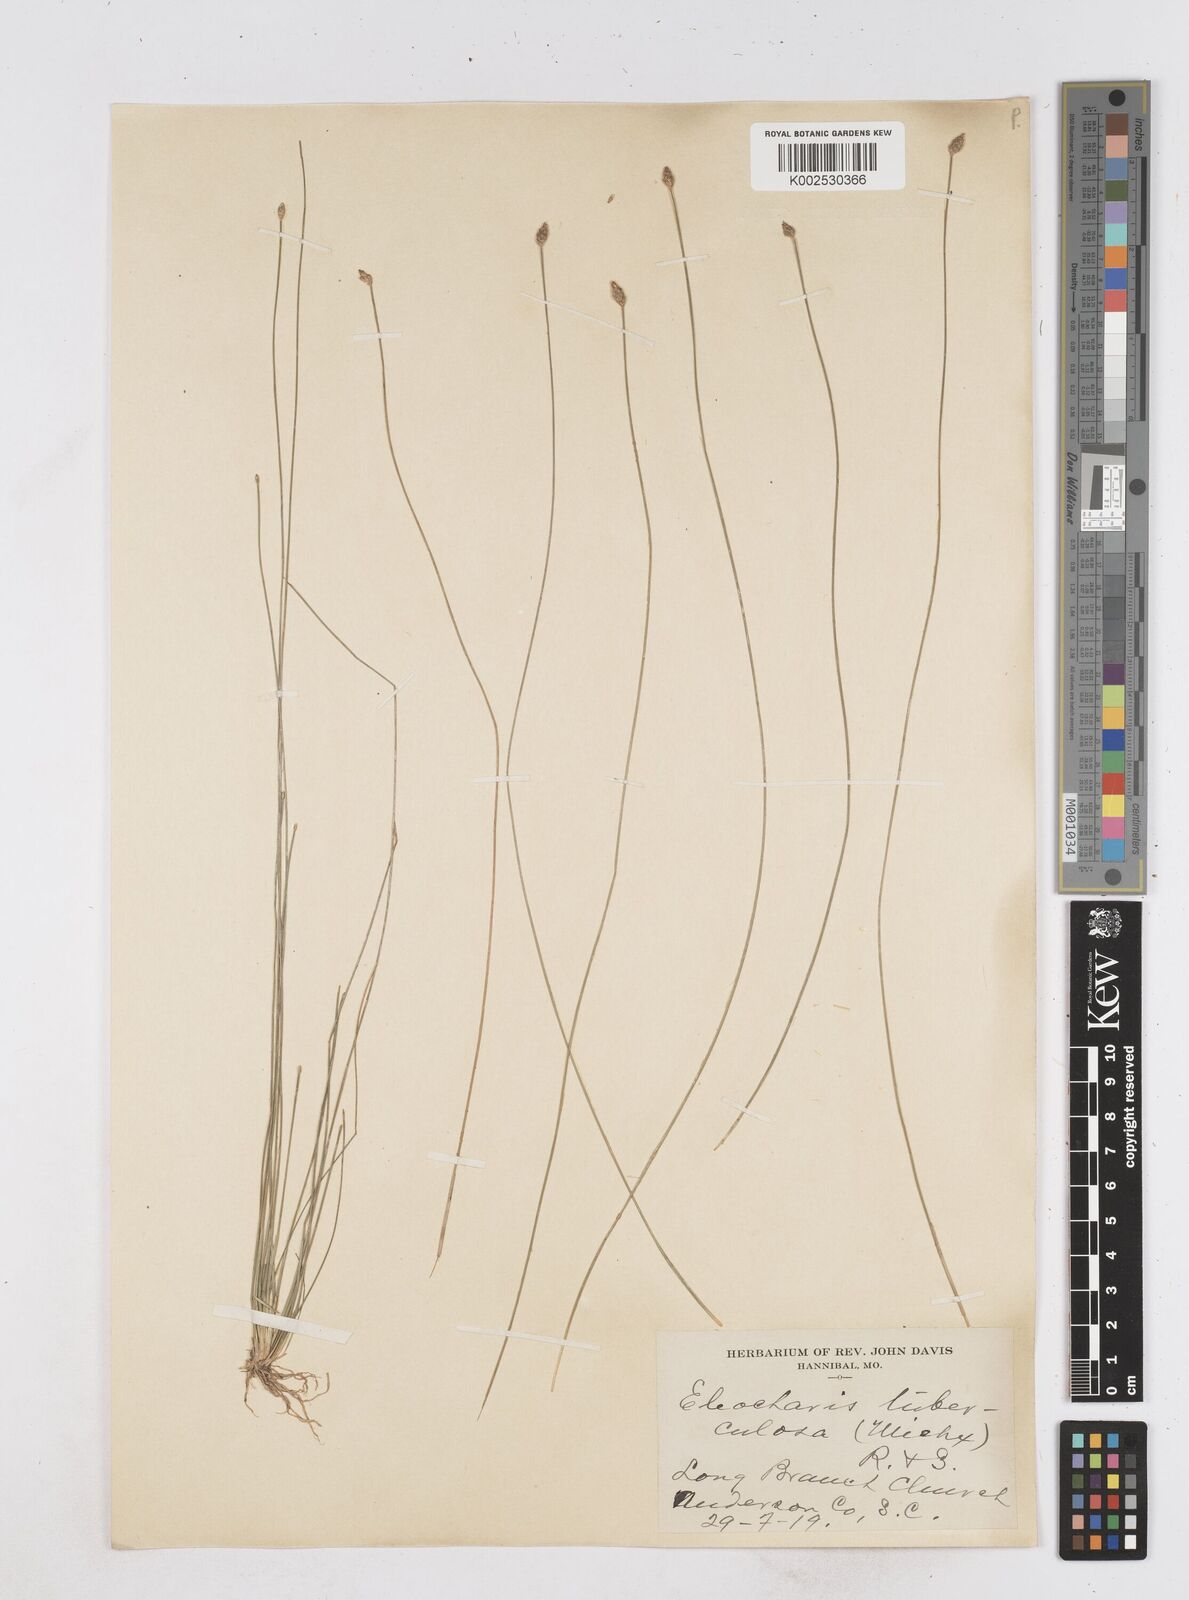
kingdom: Plantae
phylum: Tracheophyta
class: Liliopsida
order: Poales
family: Cyperaceae
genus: Eleocharis
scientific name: Eleocharis tuberculosa
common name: Cone-cup spikerush
